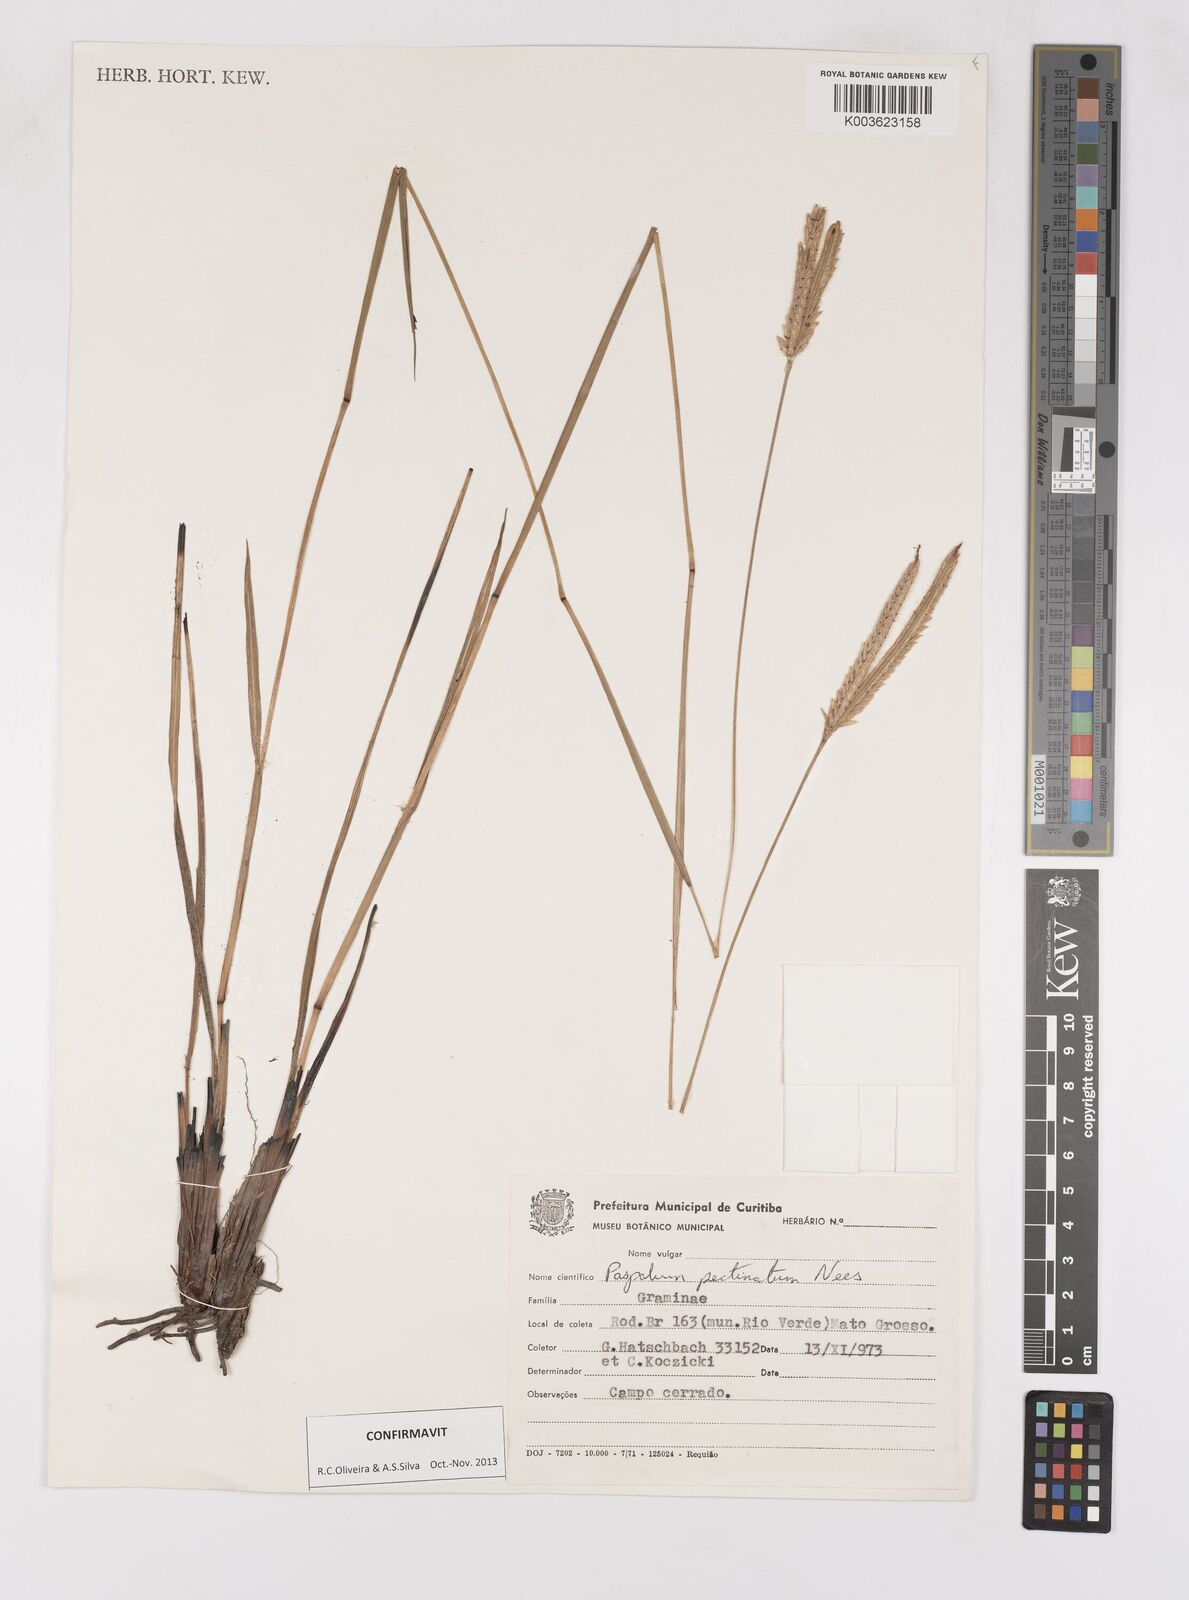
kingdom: Plantae
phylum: Tracheophyta
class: Liliopsida
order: Poales
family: Poaceae
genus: Paspalum
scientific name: Paspalum pectinatum
